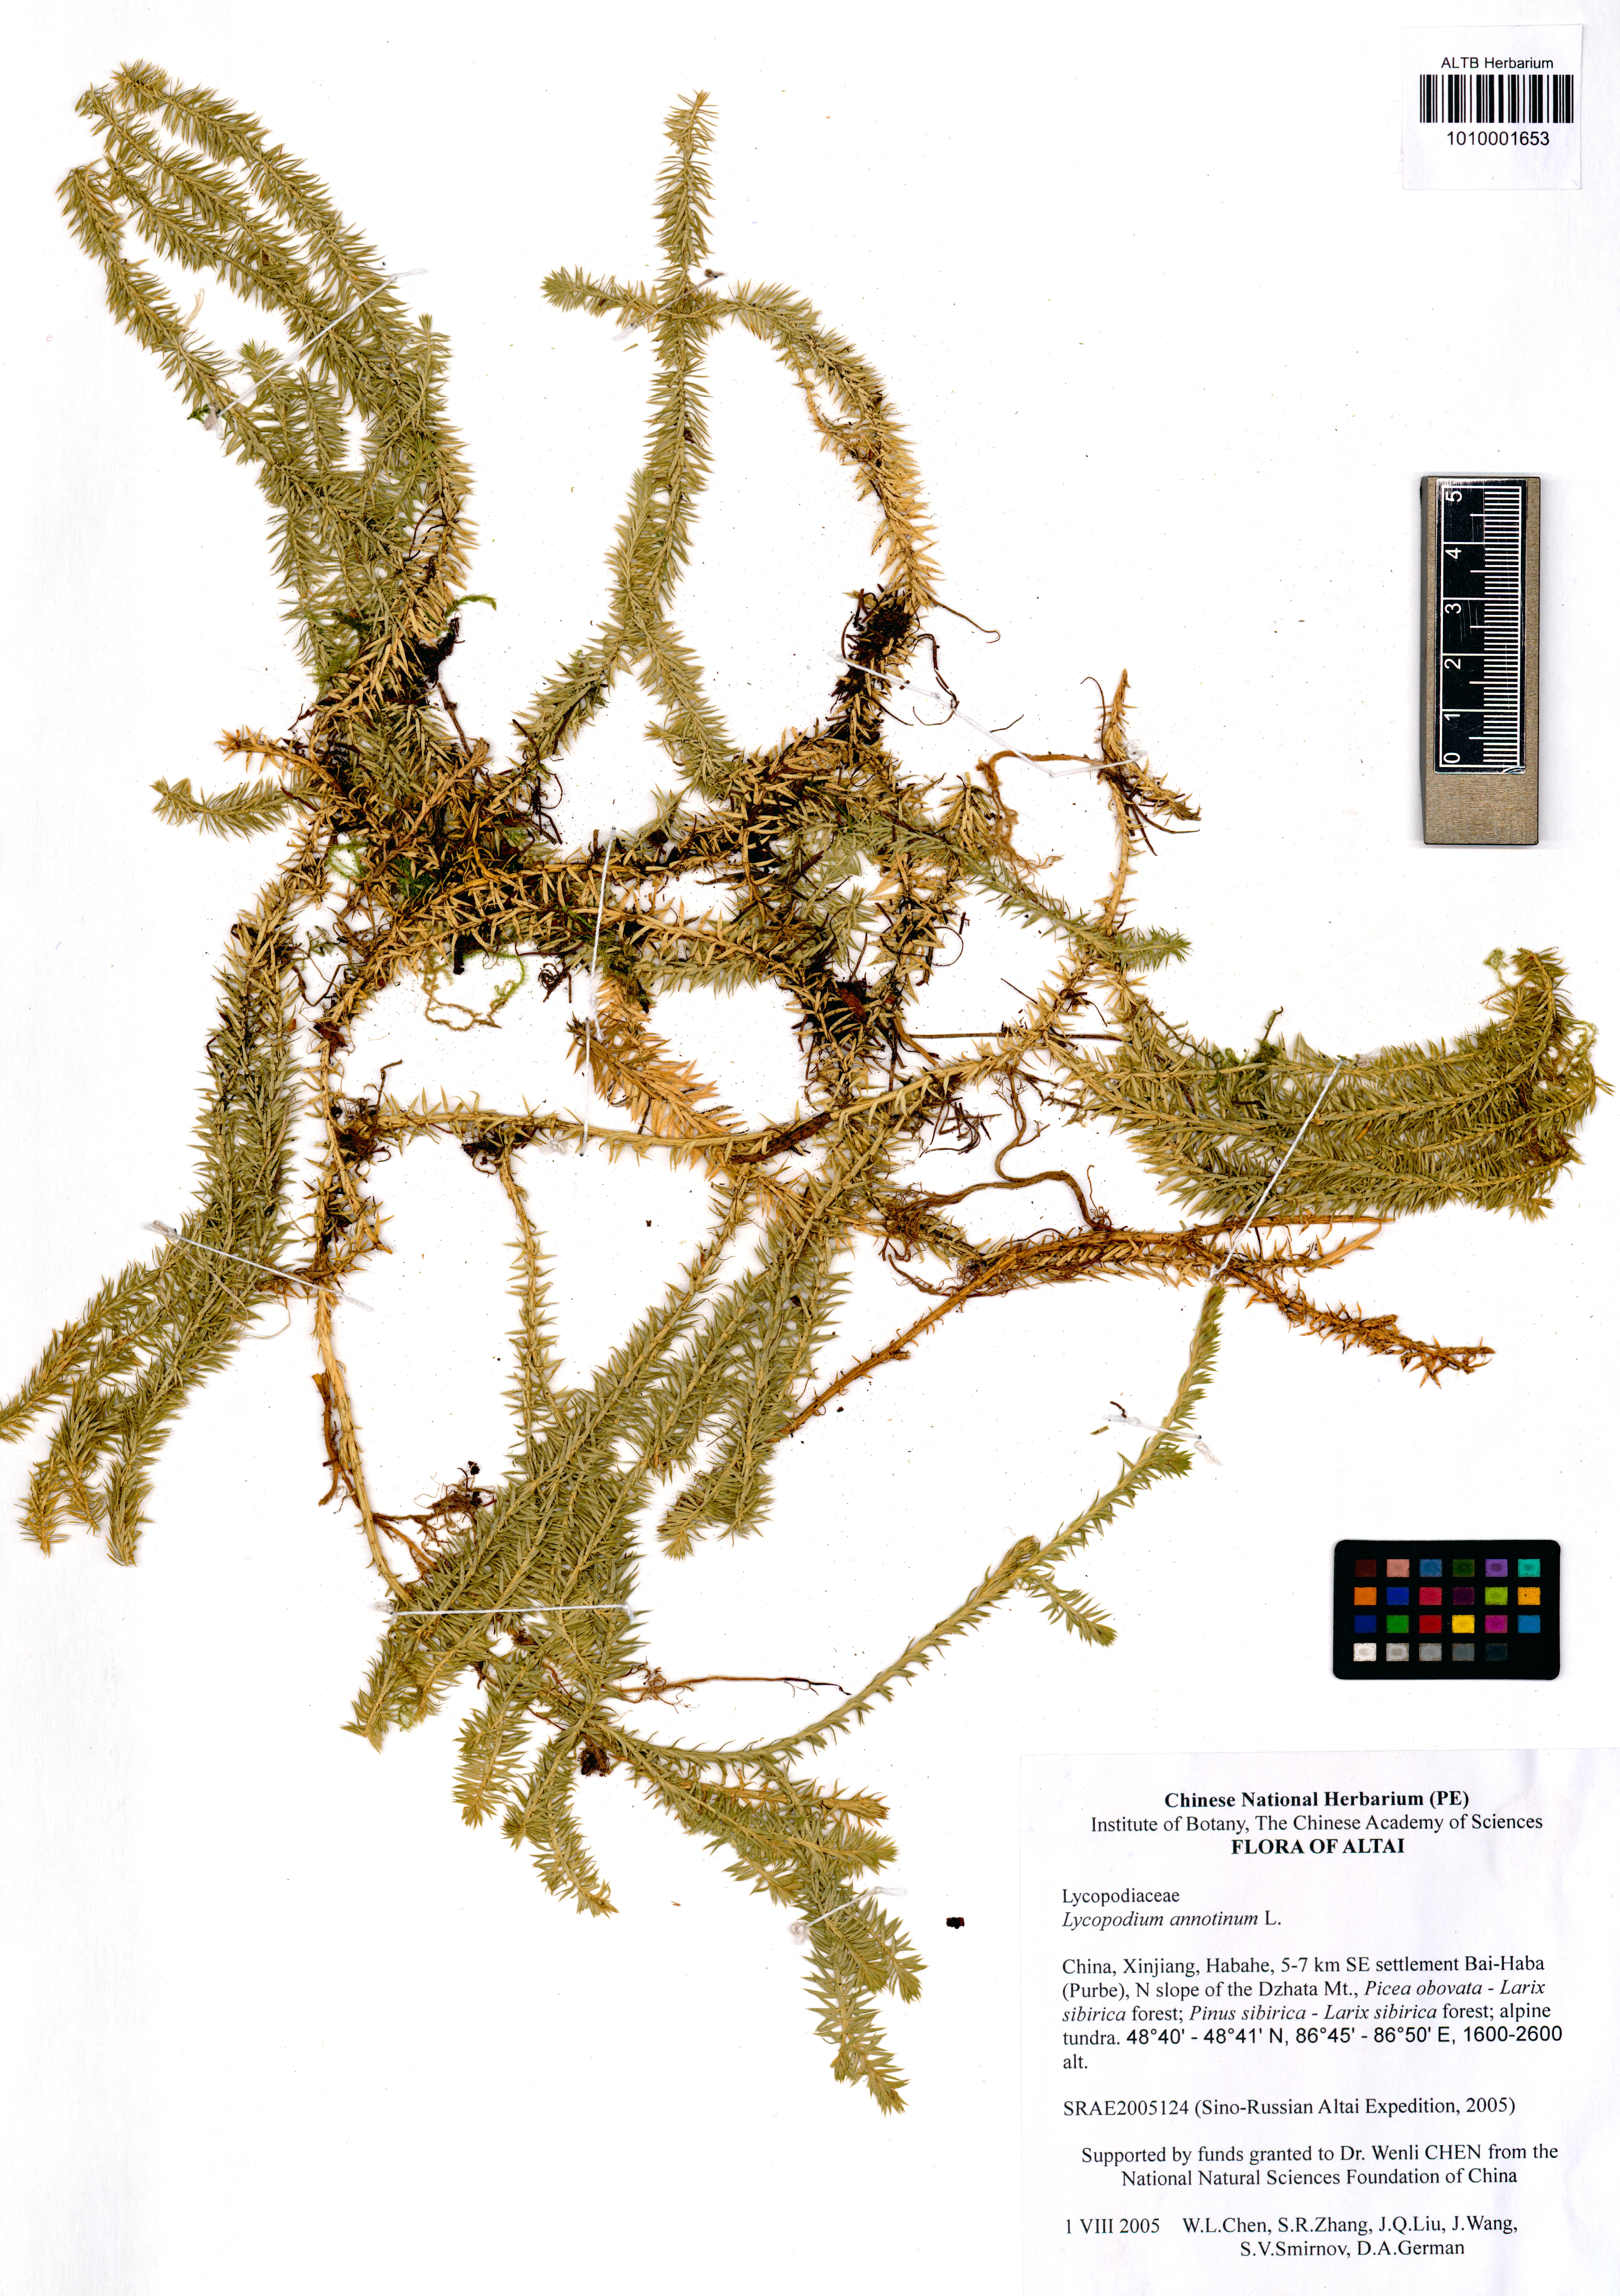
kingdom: Plantae
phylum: Tracheophyta
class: Lycopodiopsida
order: Lycopodiales
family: Lycopodiaceae
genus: Spinulum
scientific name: Spinulum annotinum
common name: Interrupted club-moss
